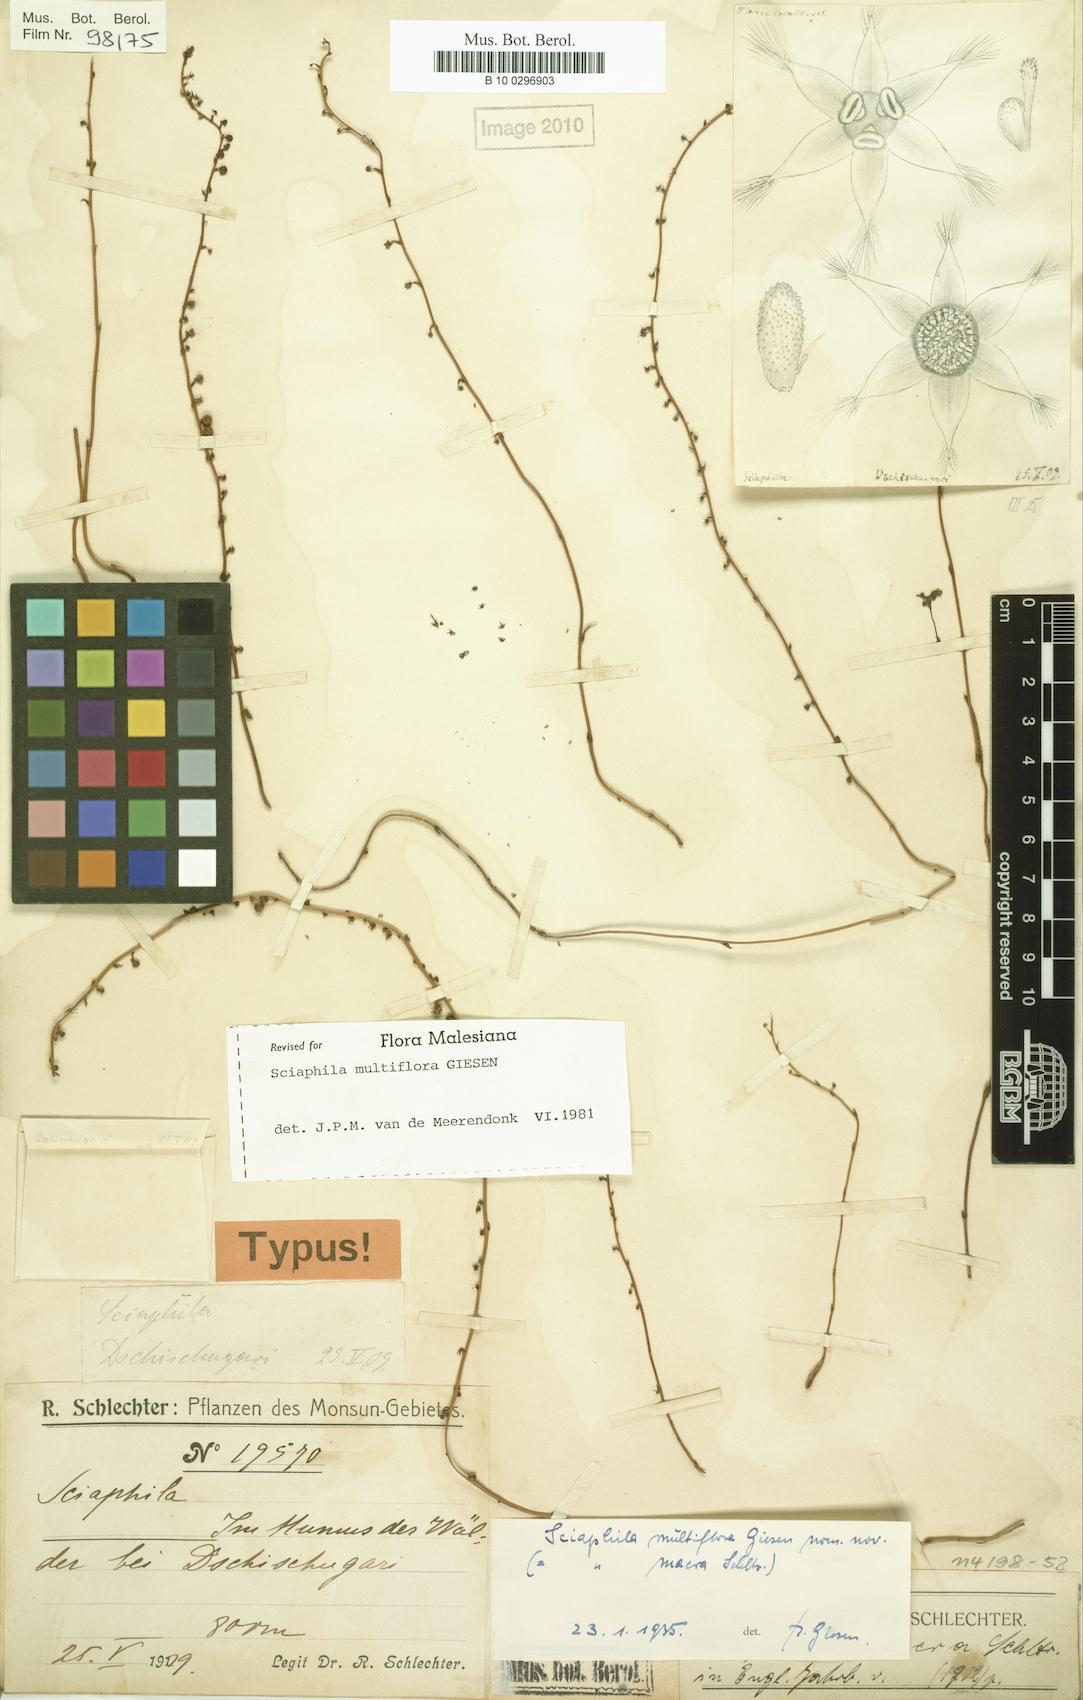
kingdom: Plantae
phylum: Tracheophyta
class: Liliopsida
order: Pandanales
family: Triuridaceae
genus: Sciaphila
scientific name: Sciaphila multiflora
